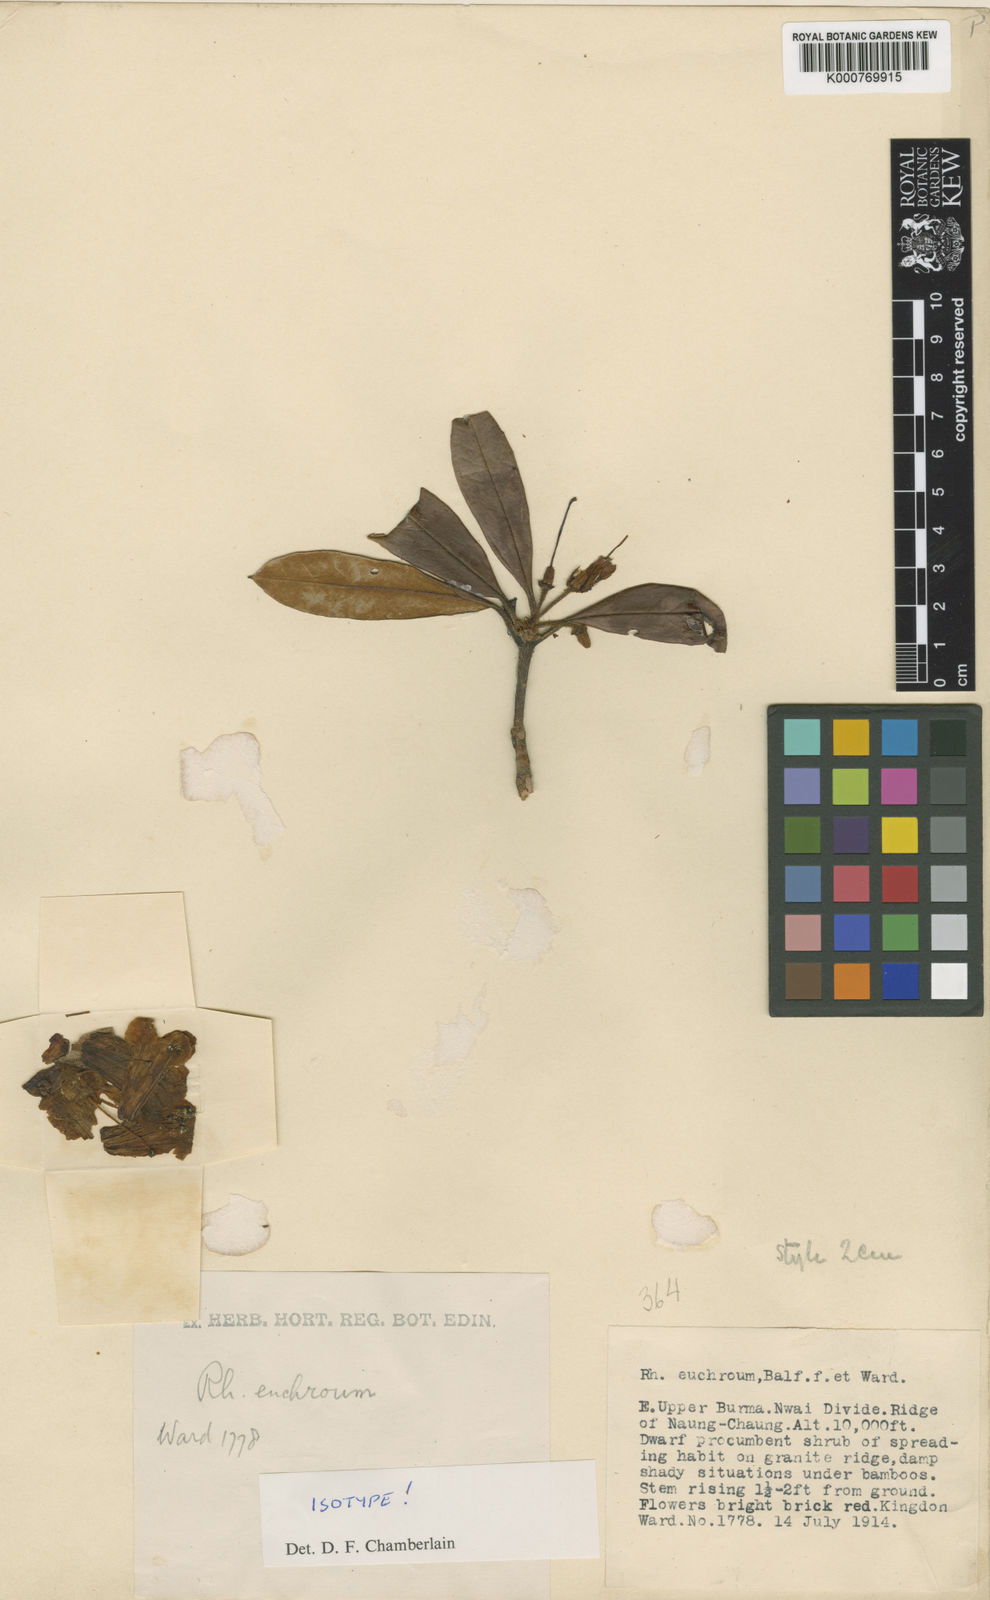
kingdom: Plantae
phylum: Tracheophyta
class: Magnoliopsida
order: Ericales
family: Ericaceae
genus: Rhododendron
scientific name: Rhododendron euchroum
